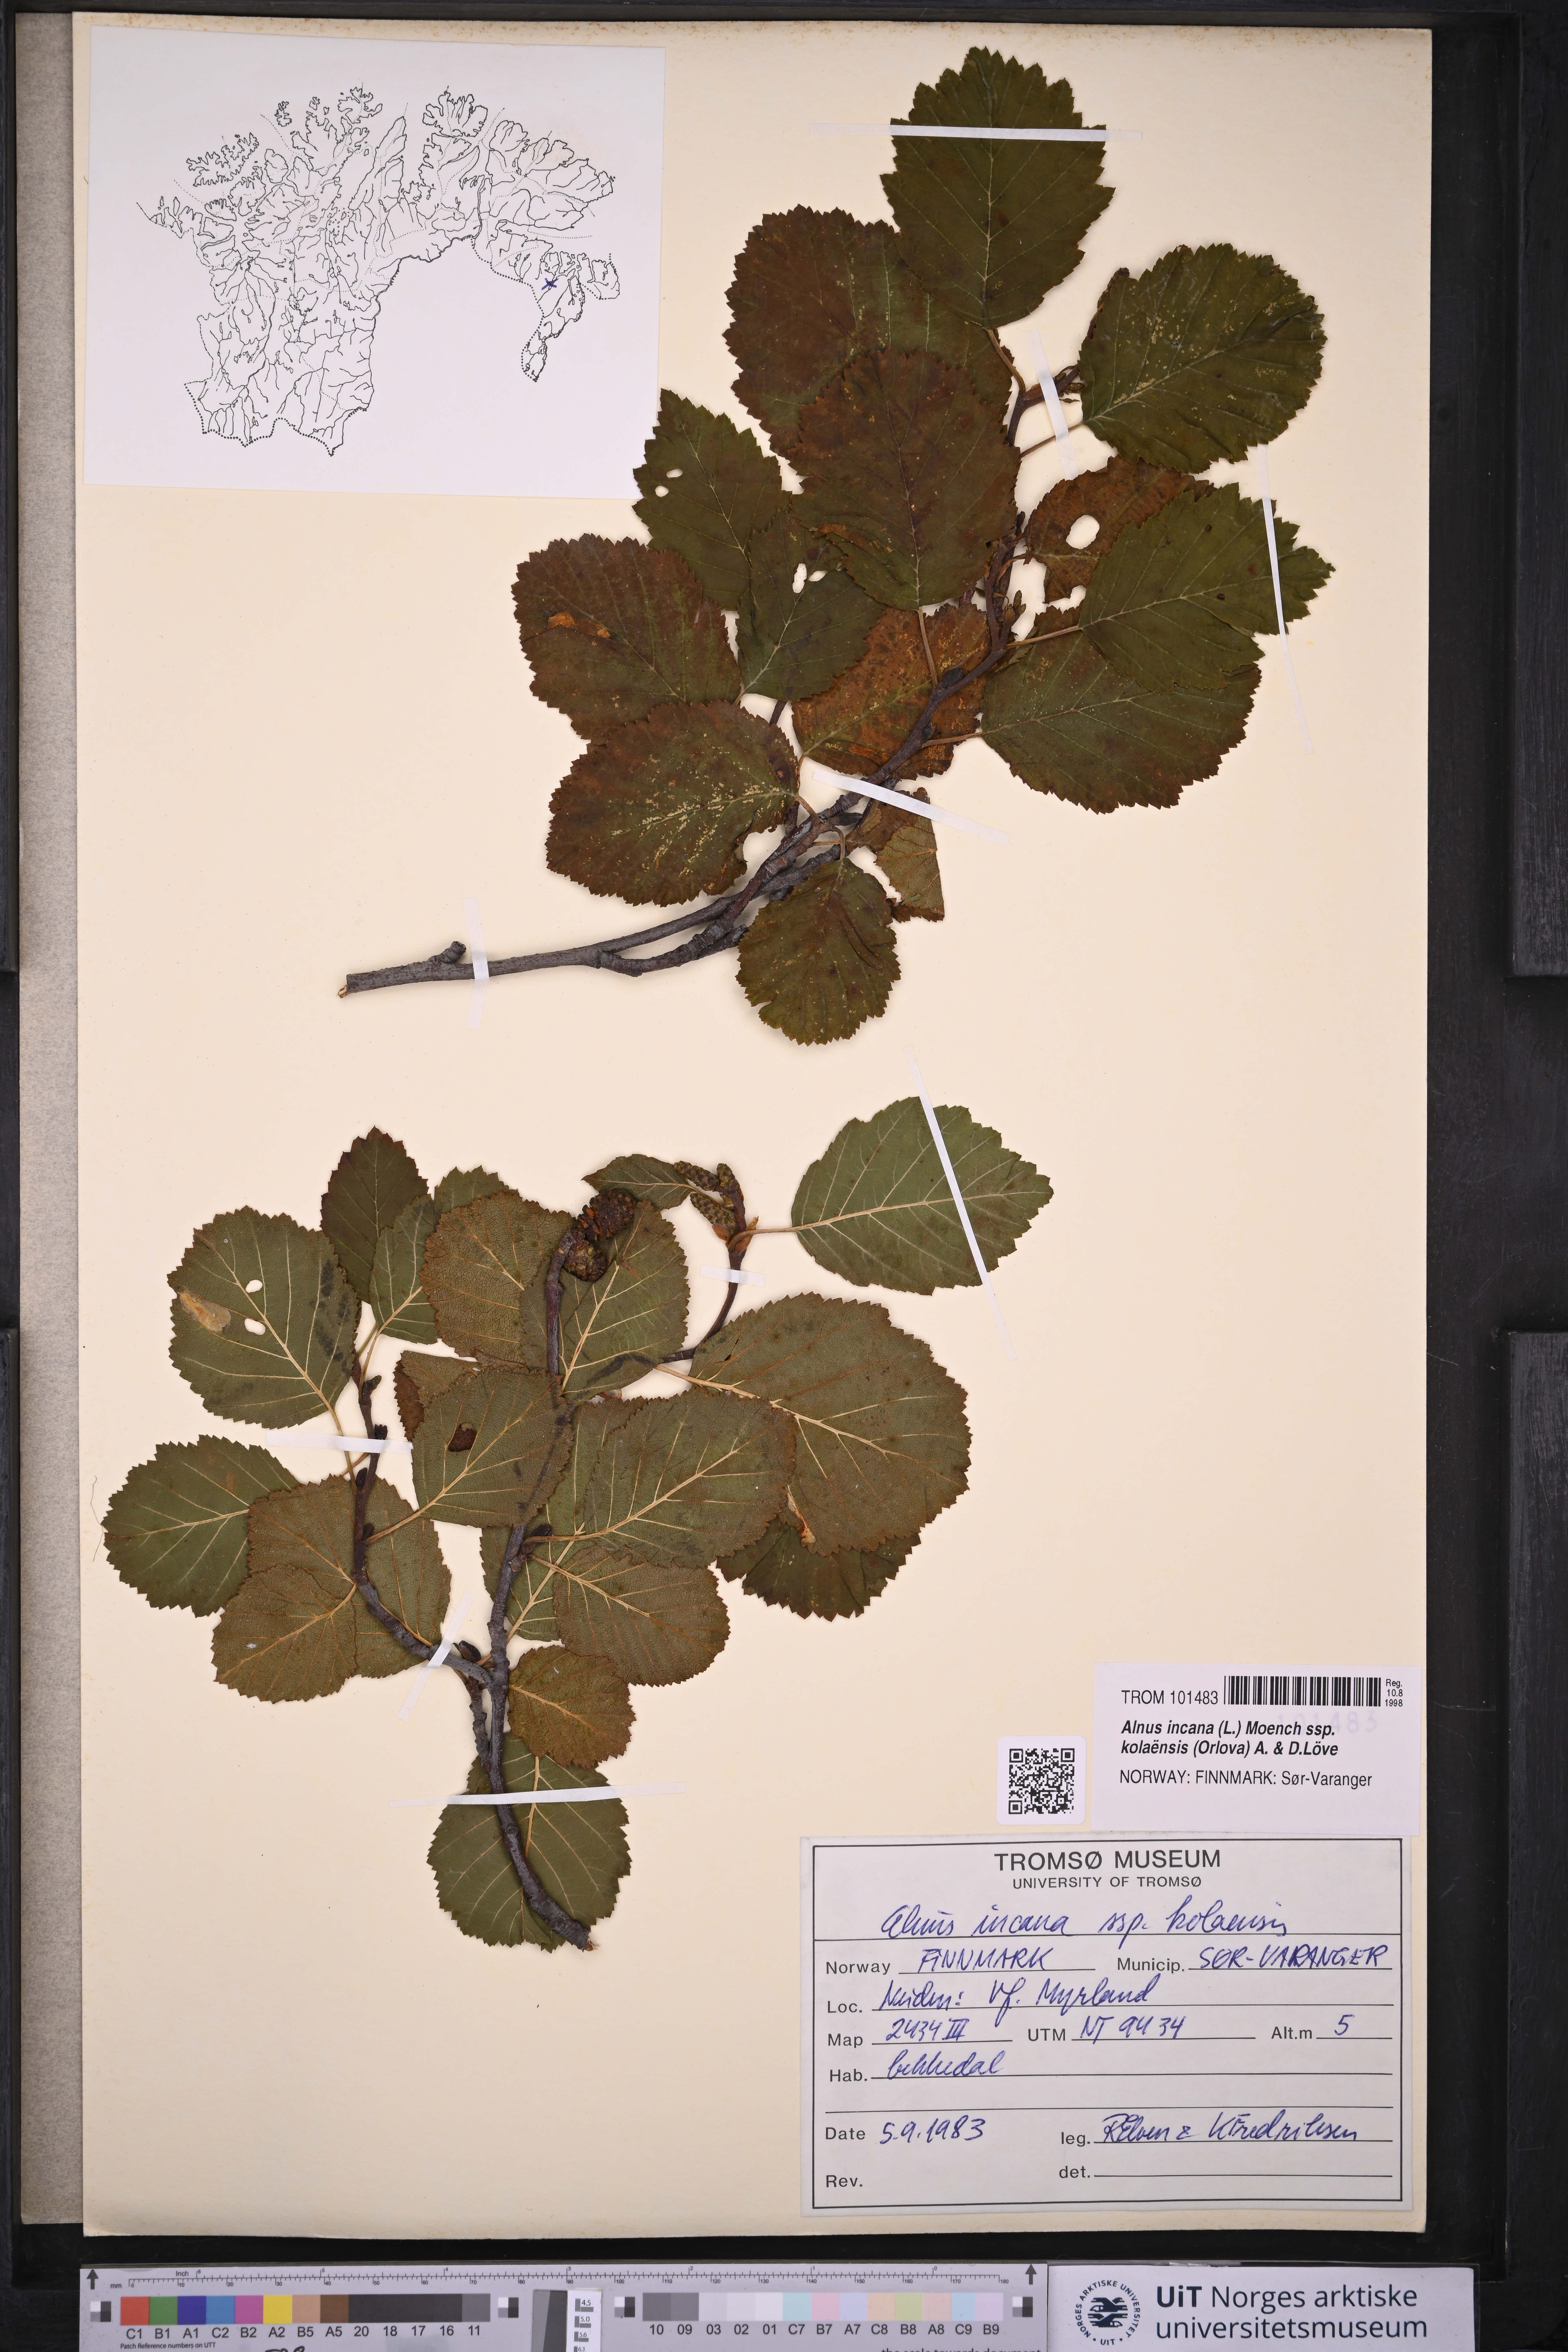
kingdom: Plantae
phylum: Tracheophyta
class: Magnoliopsida
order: Fagales
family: Betulaceae
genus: Alnus
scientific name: Alnus incana
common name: Grey alder
